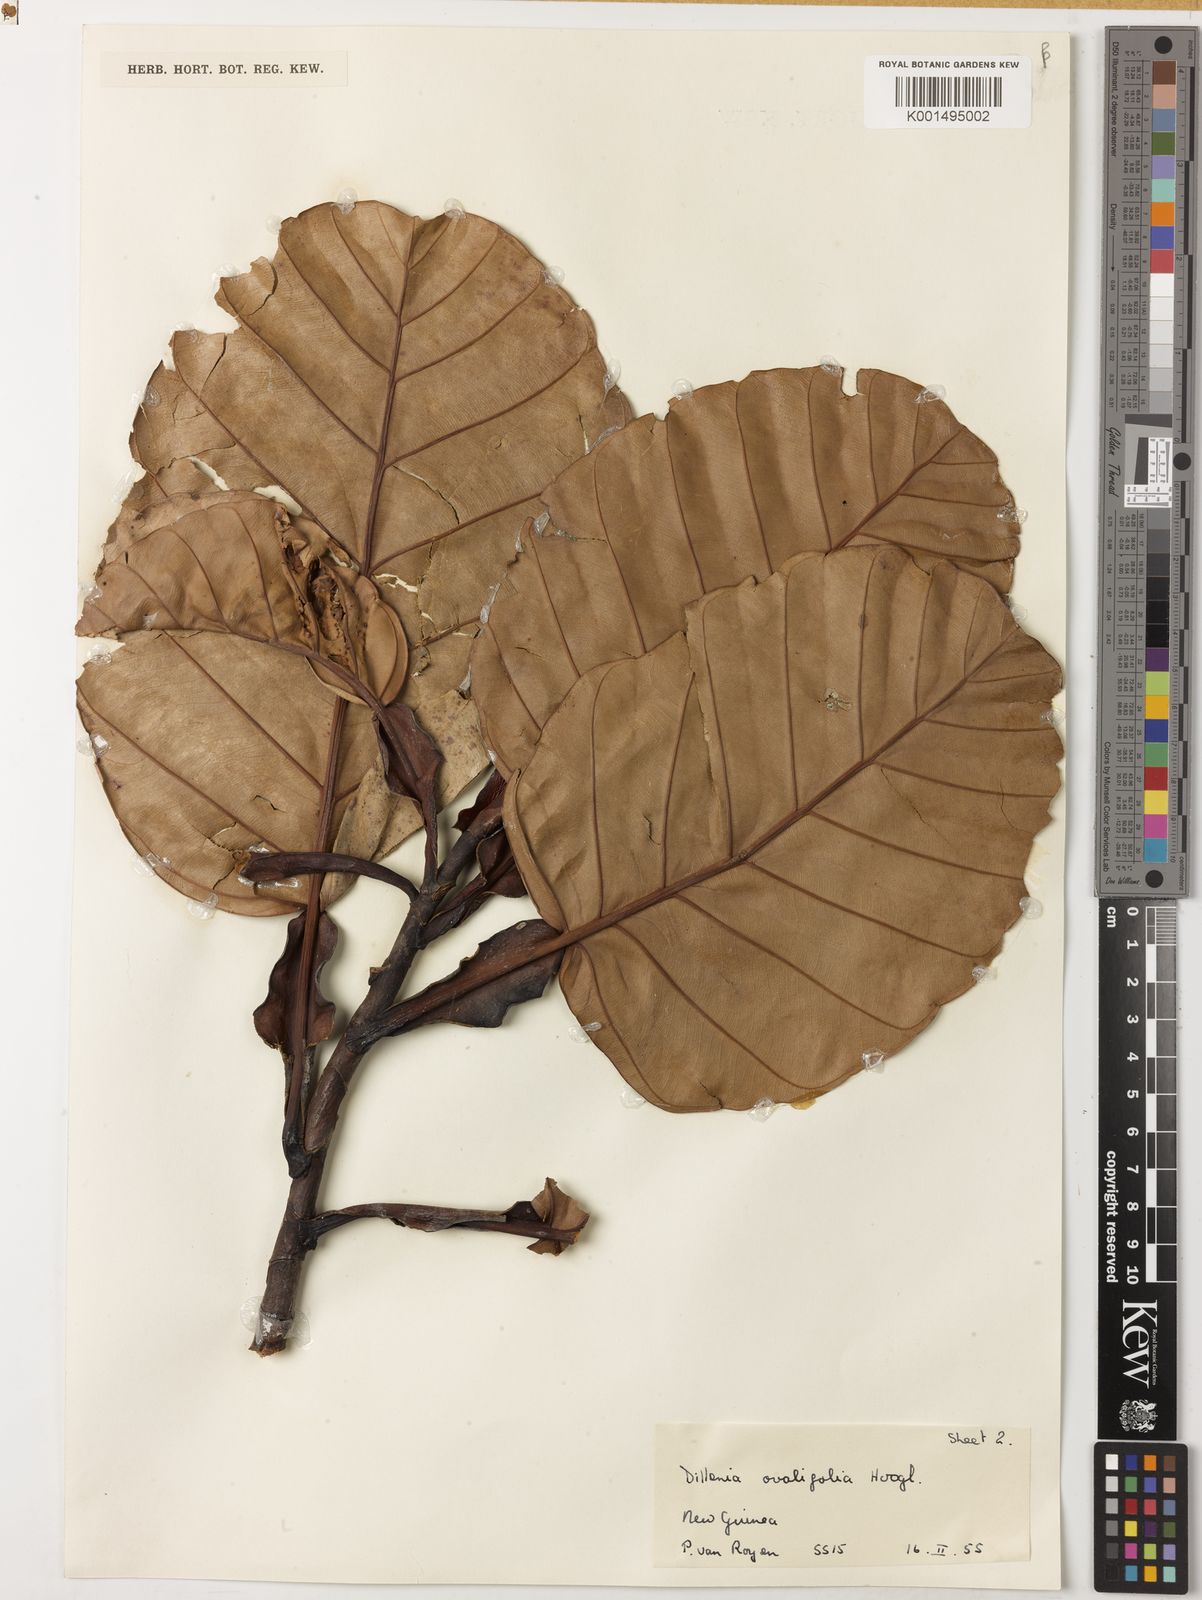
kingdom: Plantae
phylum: Tracheophyta
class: Magnoliopsida
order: Dilleniales
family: Dilleniaceae
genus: Dillenia
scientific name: Dillenia ovalifolia
